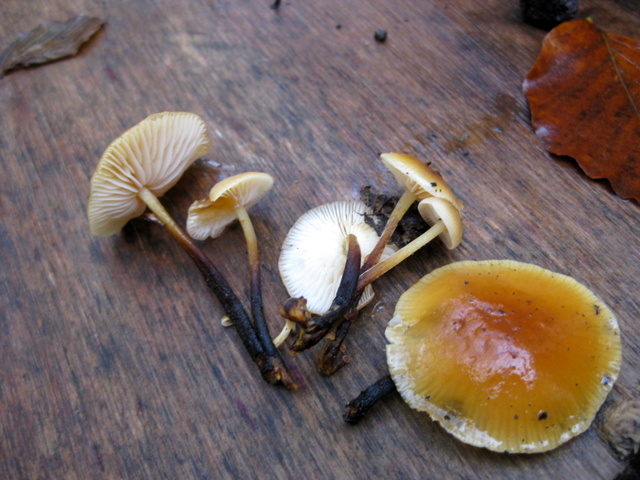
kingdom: Fungi
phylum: Basidiomycota
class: Agaricomycetes
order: Agaricales
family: Physalacriaceae
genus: Flammulina
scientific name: Flammulina velutipes
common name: gul fløjlsfod
